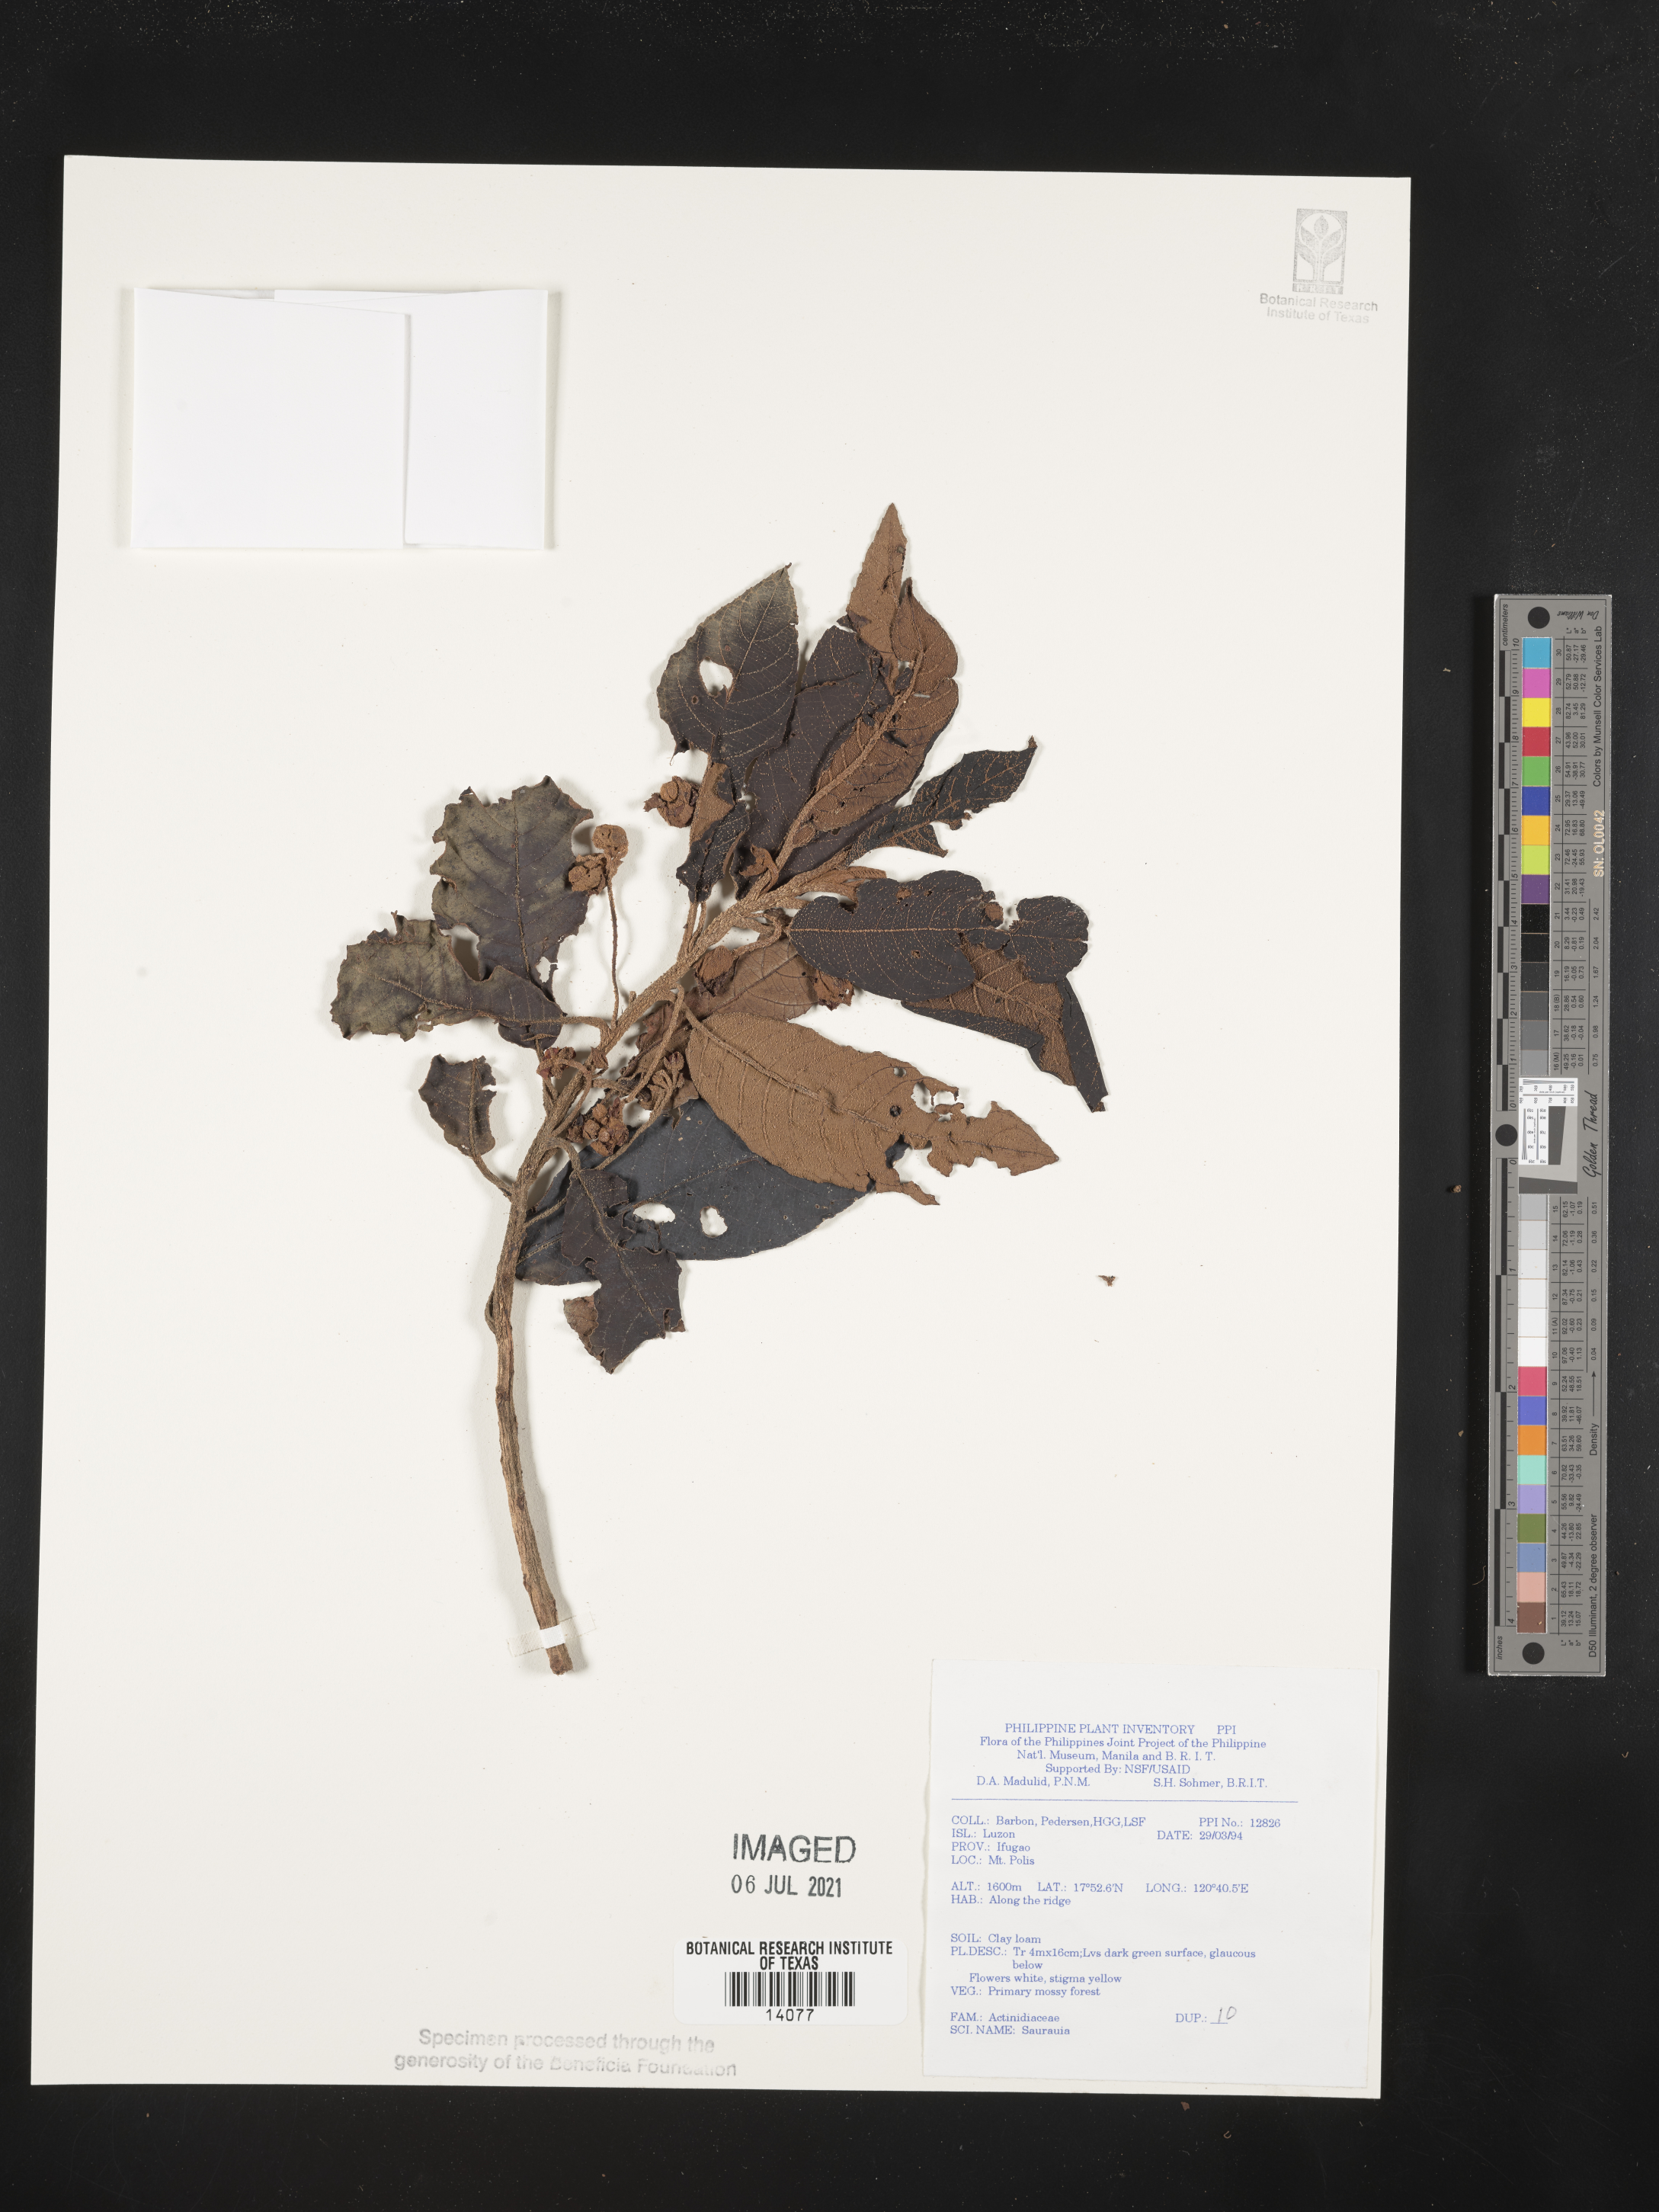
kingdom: Plantae
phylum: Tracheophyta
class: Magnoliopsida
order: Ericales
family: Actinidiaceae
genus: Saurauia
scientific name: Saurauia
